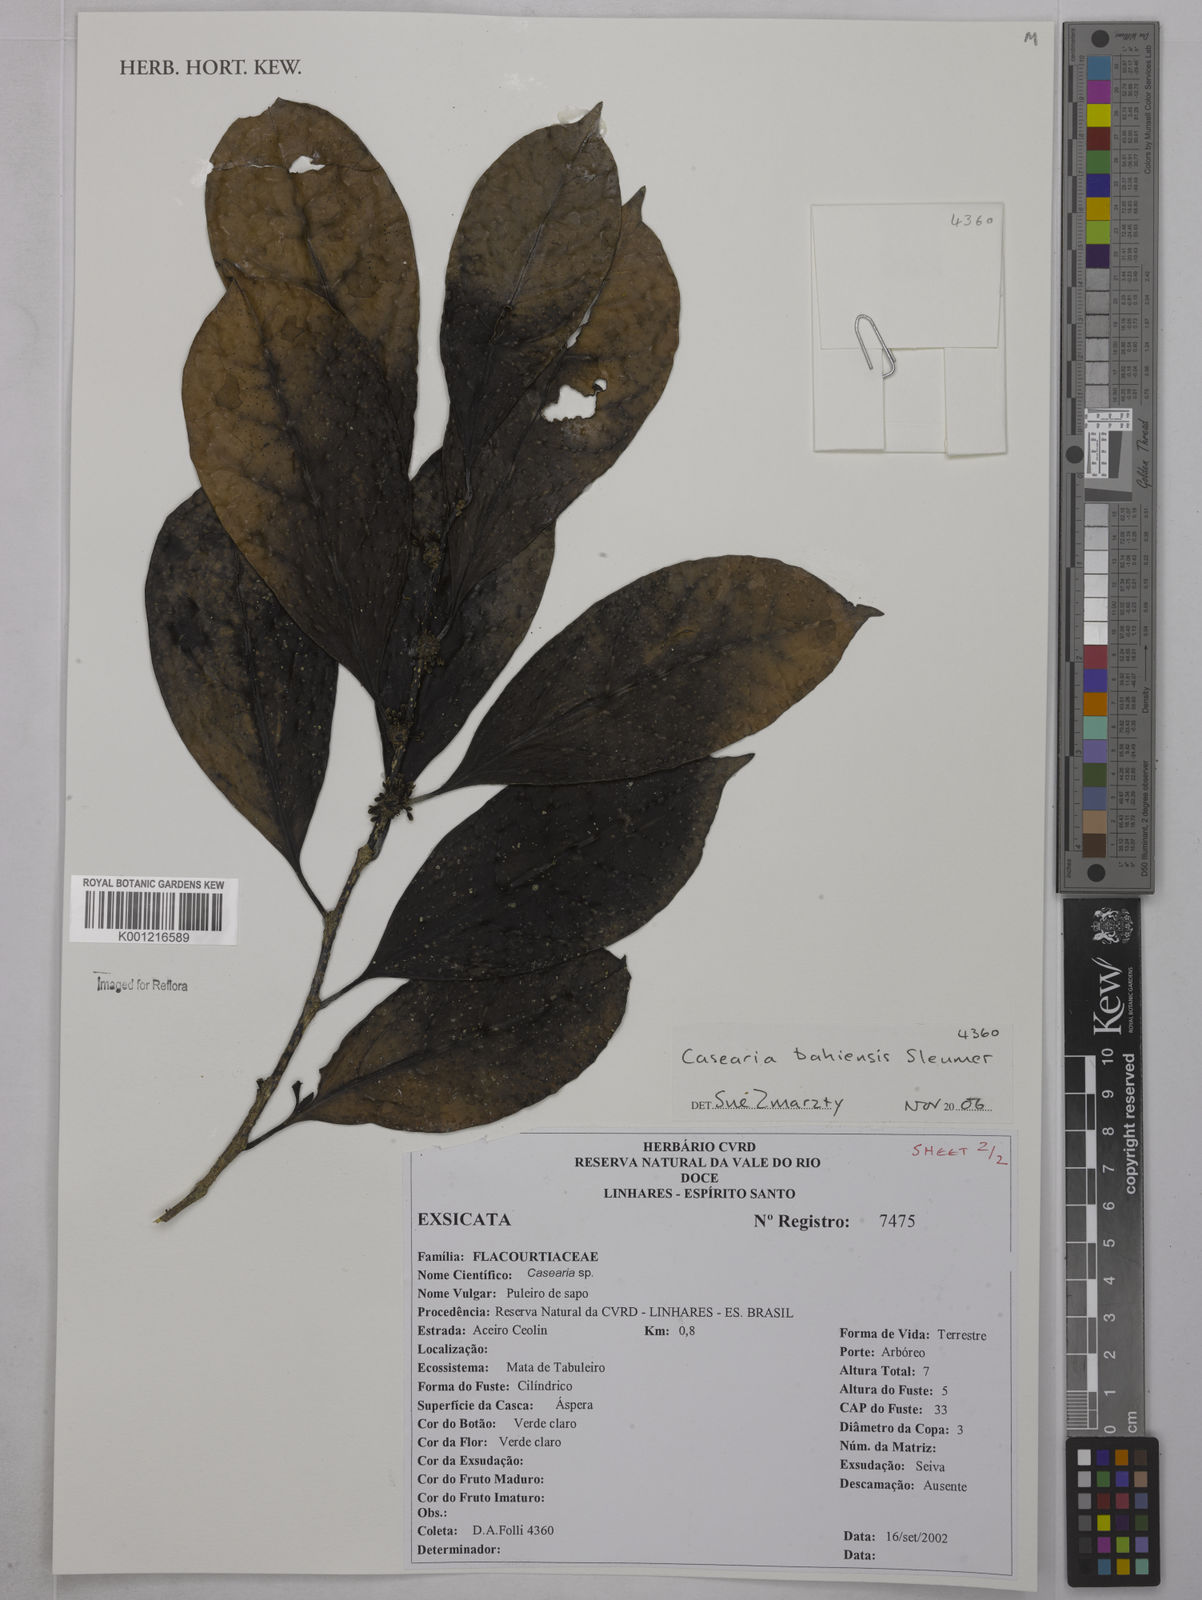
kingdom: Plantae
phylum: Tracheophyta
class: Magnoliopsida
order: Malpighiales
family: Salicaceae
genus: Casearia
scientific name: Casearia bahiensis
